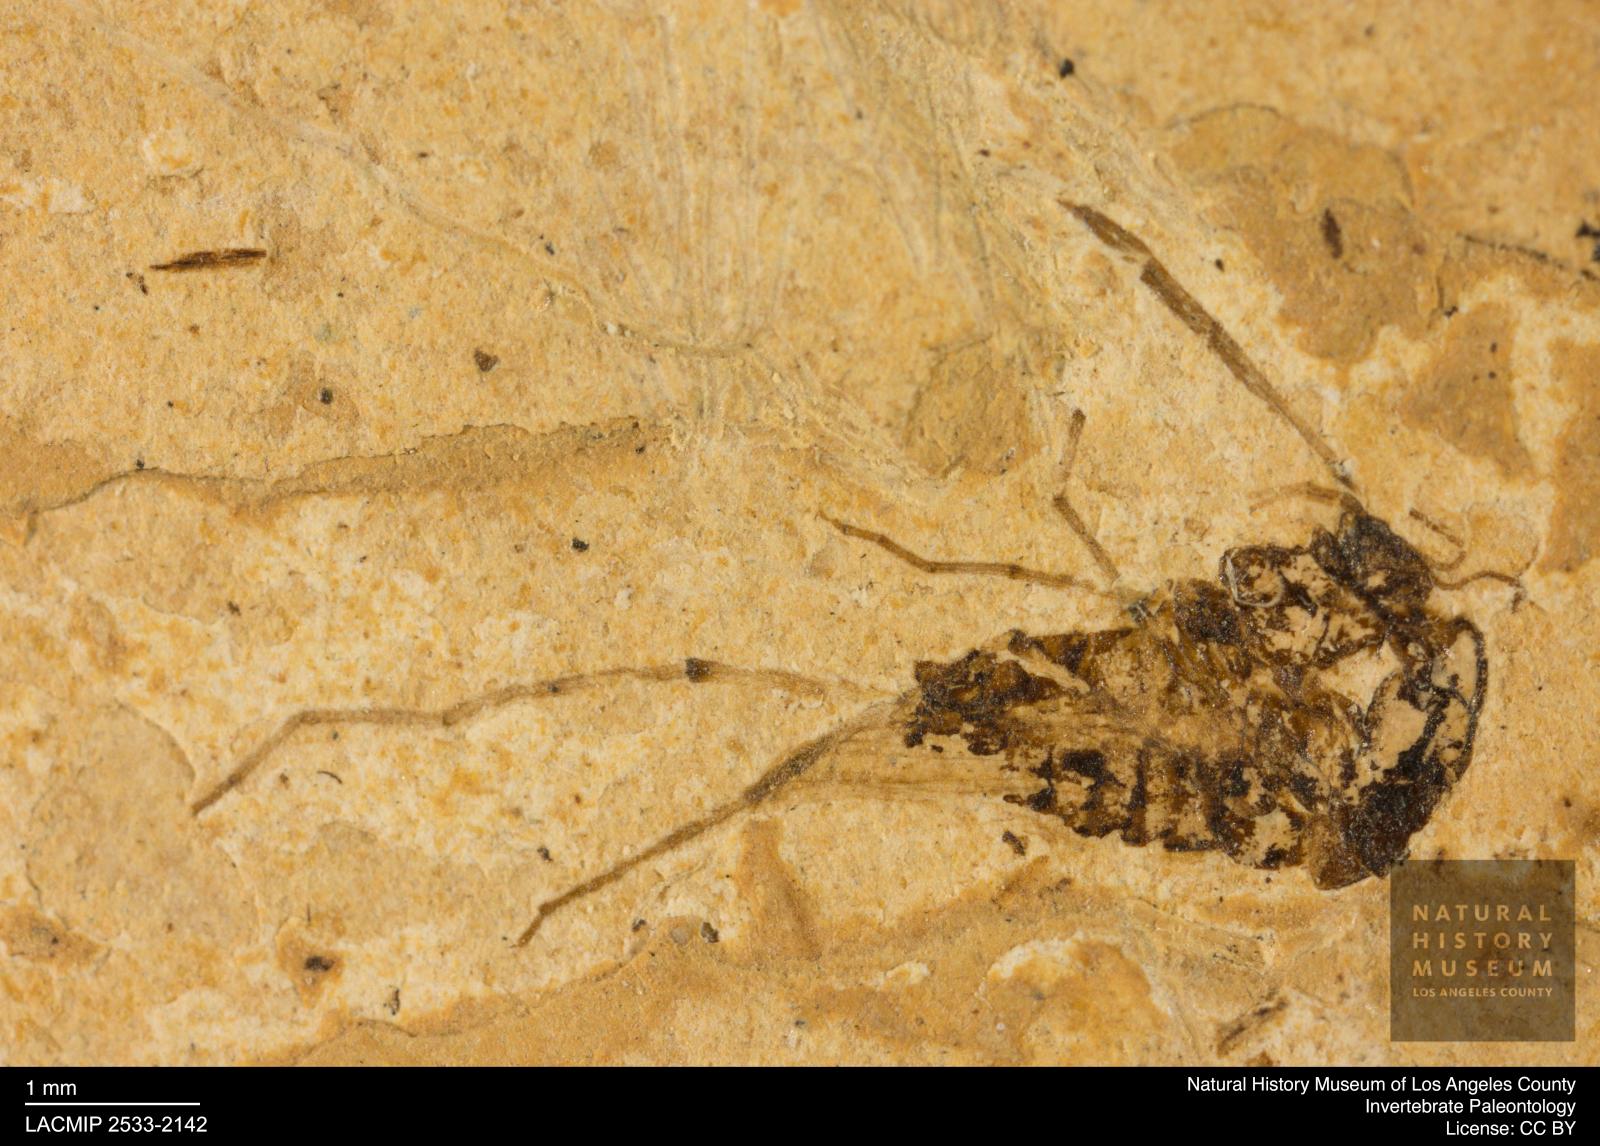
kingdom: Animalia
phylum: Arthropoda
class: Insecta
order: Diptera
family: Chironomidae
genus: Tanypus
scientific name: Tanypus palaemon
